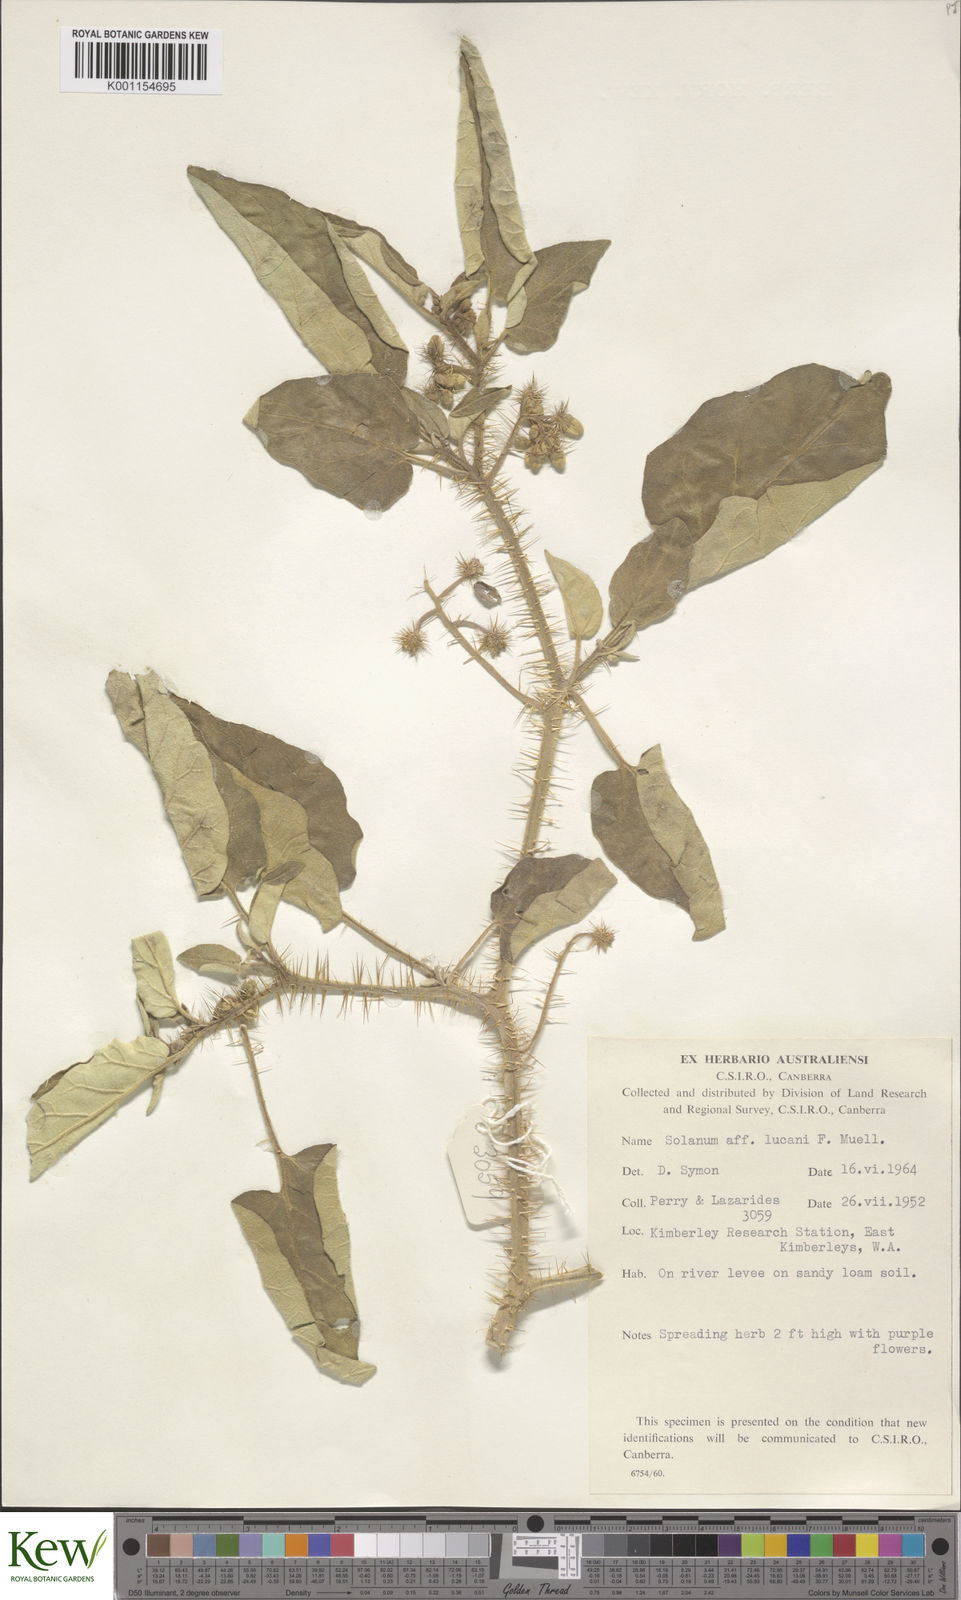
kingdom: Plantae
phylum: Tracheophyta
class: Magnoliopsida
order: Solanales
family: Solanaceae
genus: Solanum
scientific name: Solanum lucani
